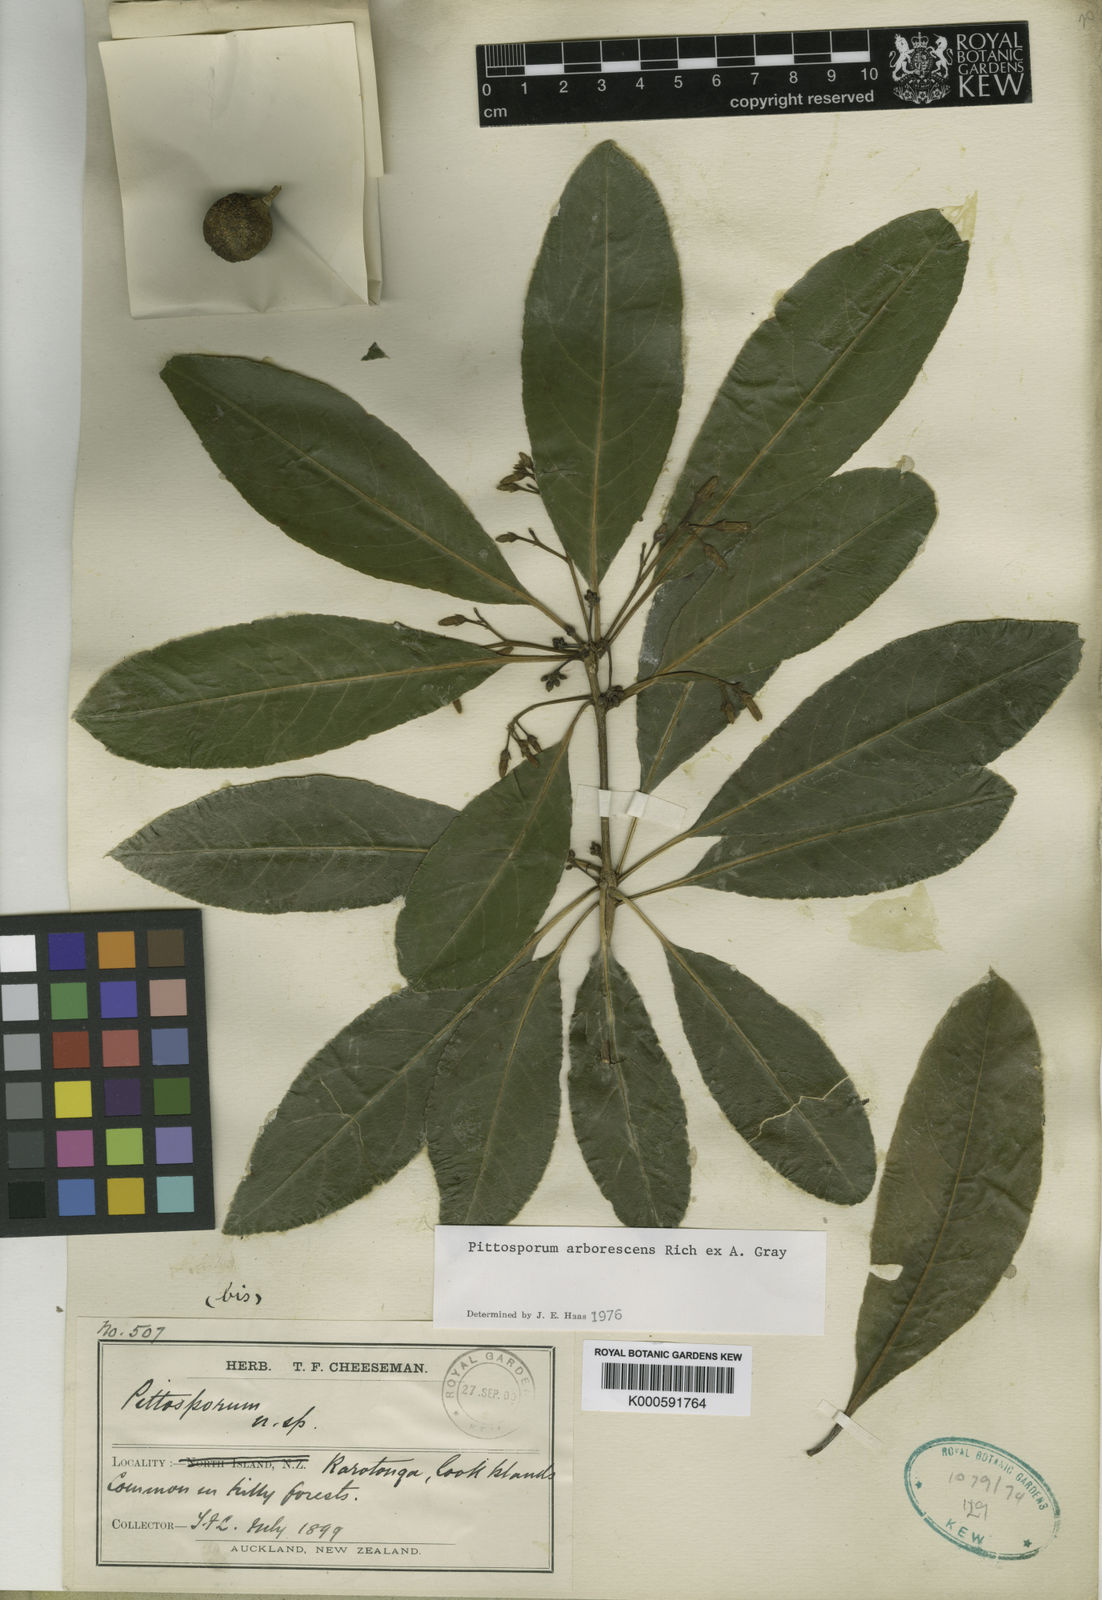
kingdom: Plantae
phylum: Tracheophyta
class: Magnoliopsida
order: Apiales
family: Pittosporaceae
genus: Pittosporum
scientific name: Pittosporum rarotongense
